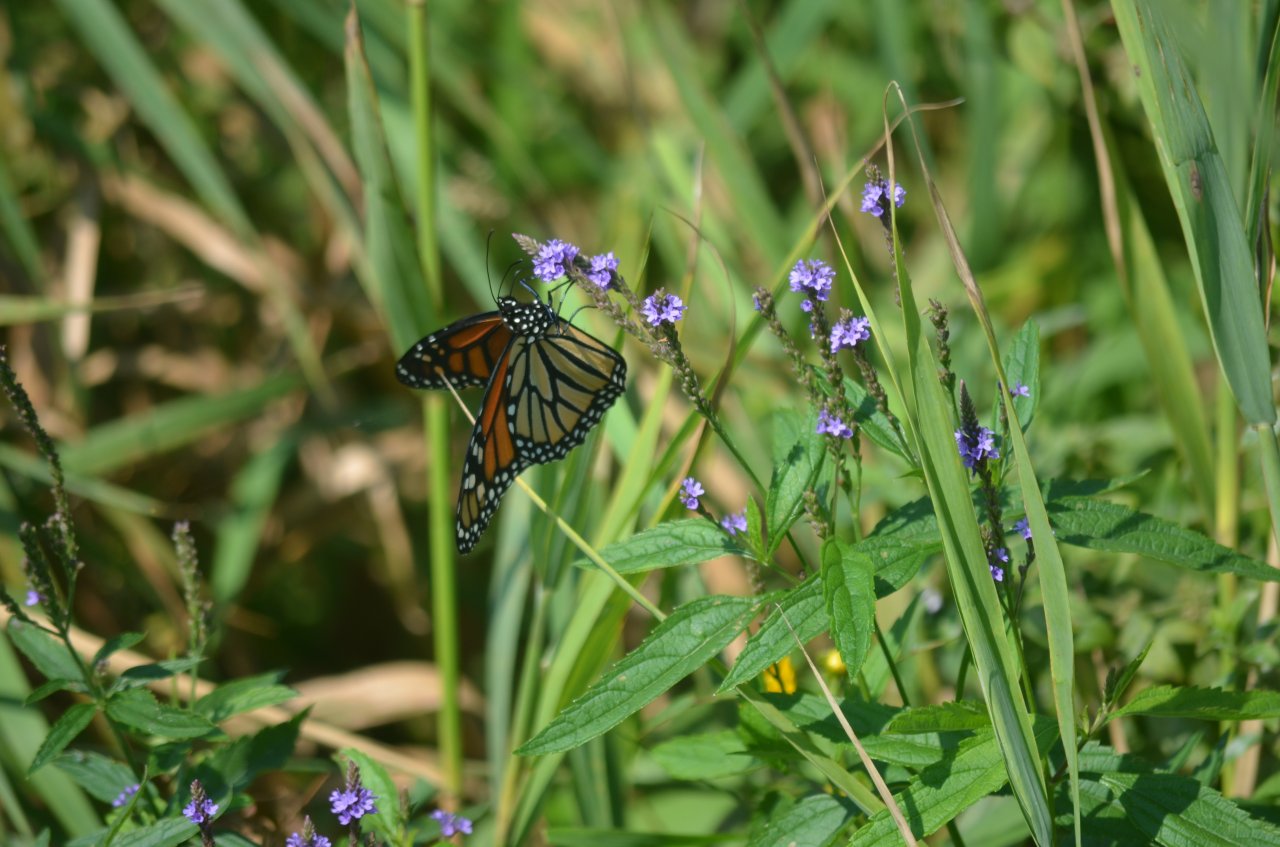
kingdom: Animalia
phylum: Arthropoda
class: Insecta
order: Lepidoptera
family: Nymphalidae
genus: Danaus
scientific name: Danaus plexippus
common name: Monarch
